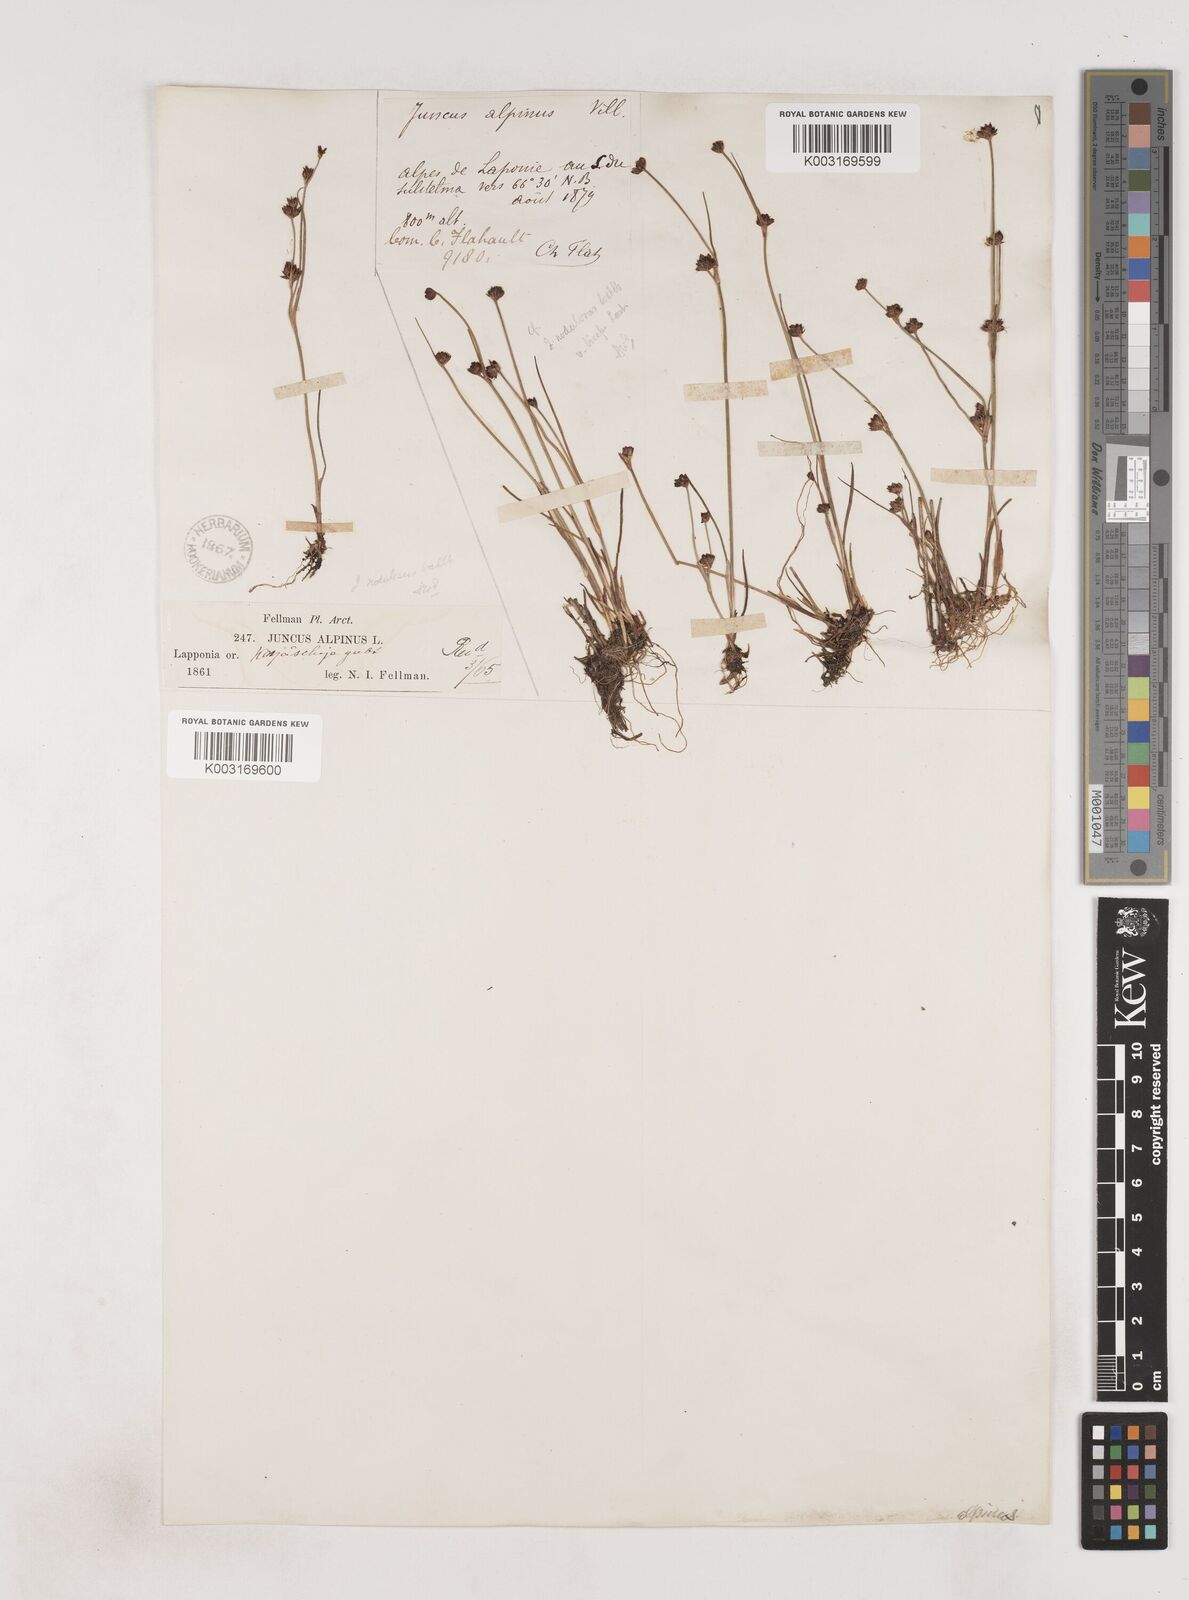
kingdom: Plantae
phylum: Tracheophyta
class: Liliopsida
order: Poales
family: Juncaceae
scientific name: Juncaceae
